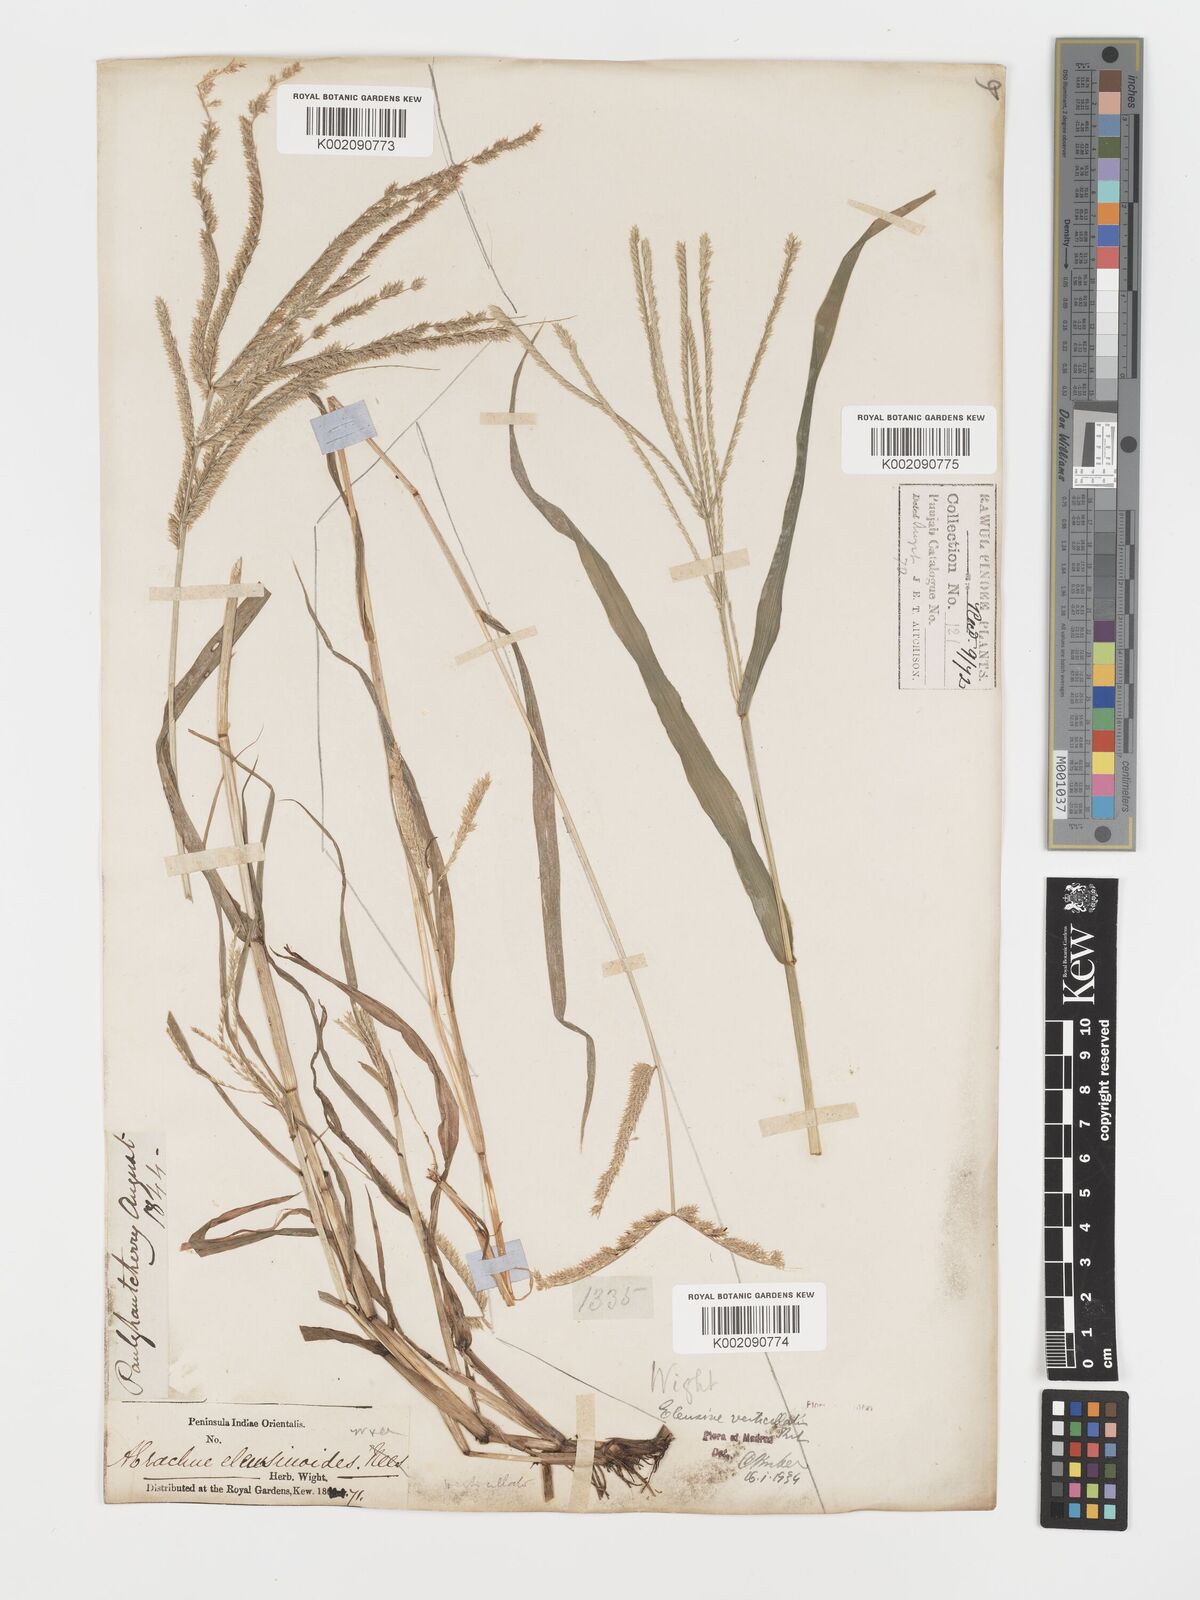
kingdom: Plantae
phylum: Tracheophyta
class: Liliopsida
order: Poales
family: Poaceae
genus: Acrachne
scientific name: Acrachne racemosa
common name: Goosegrass
